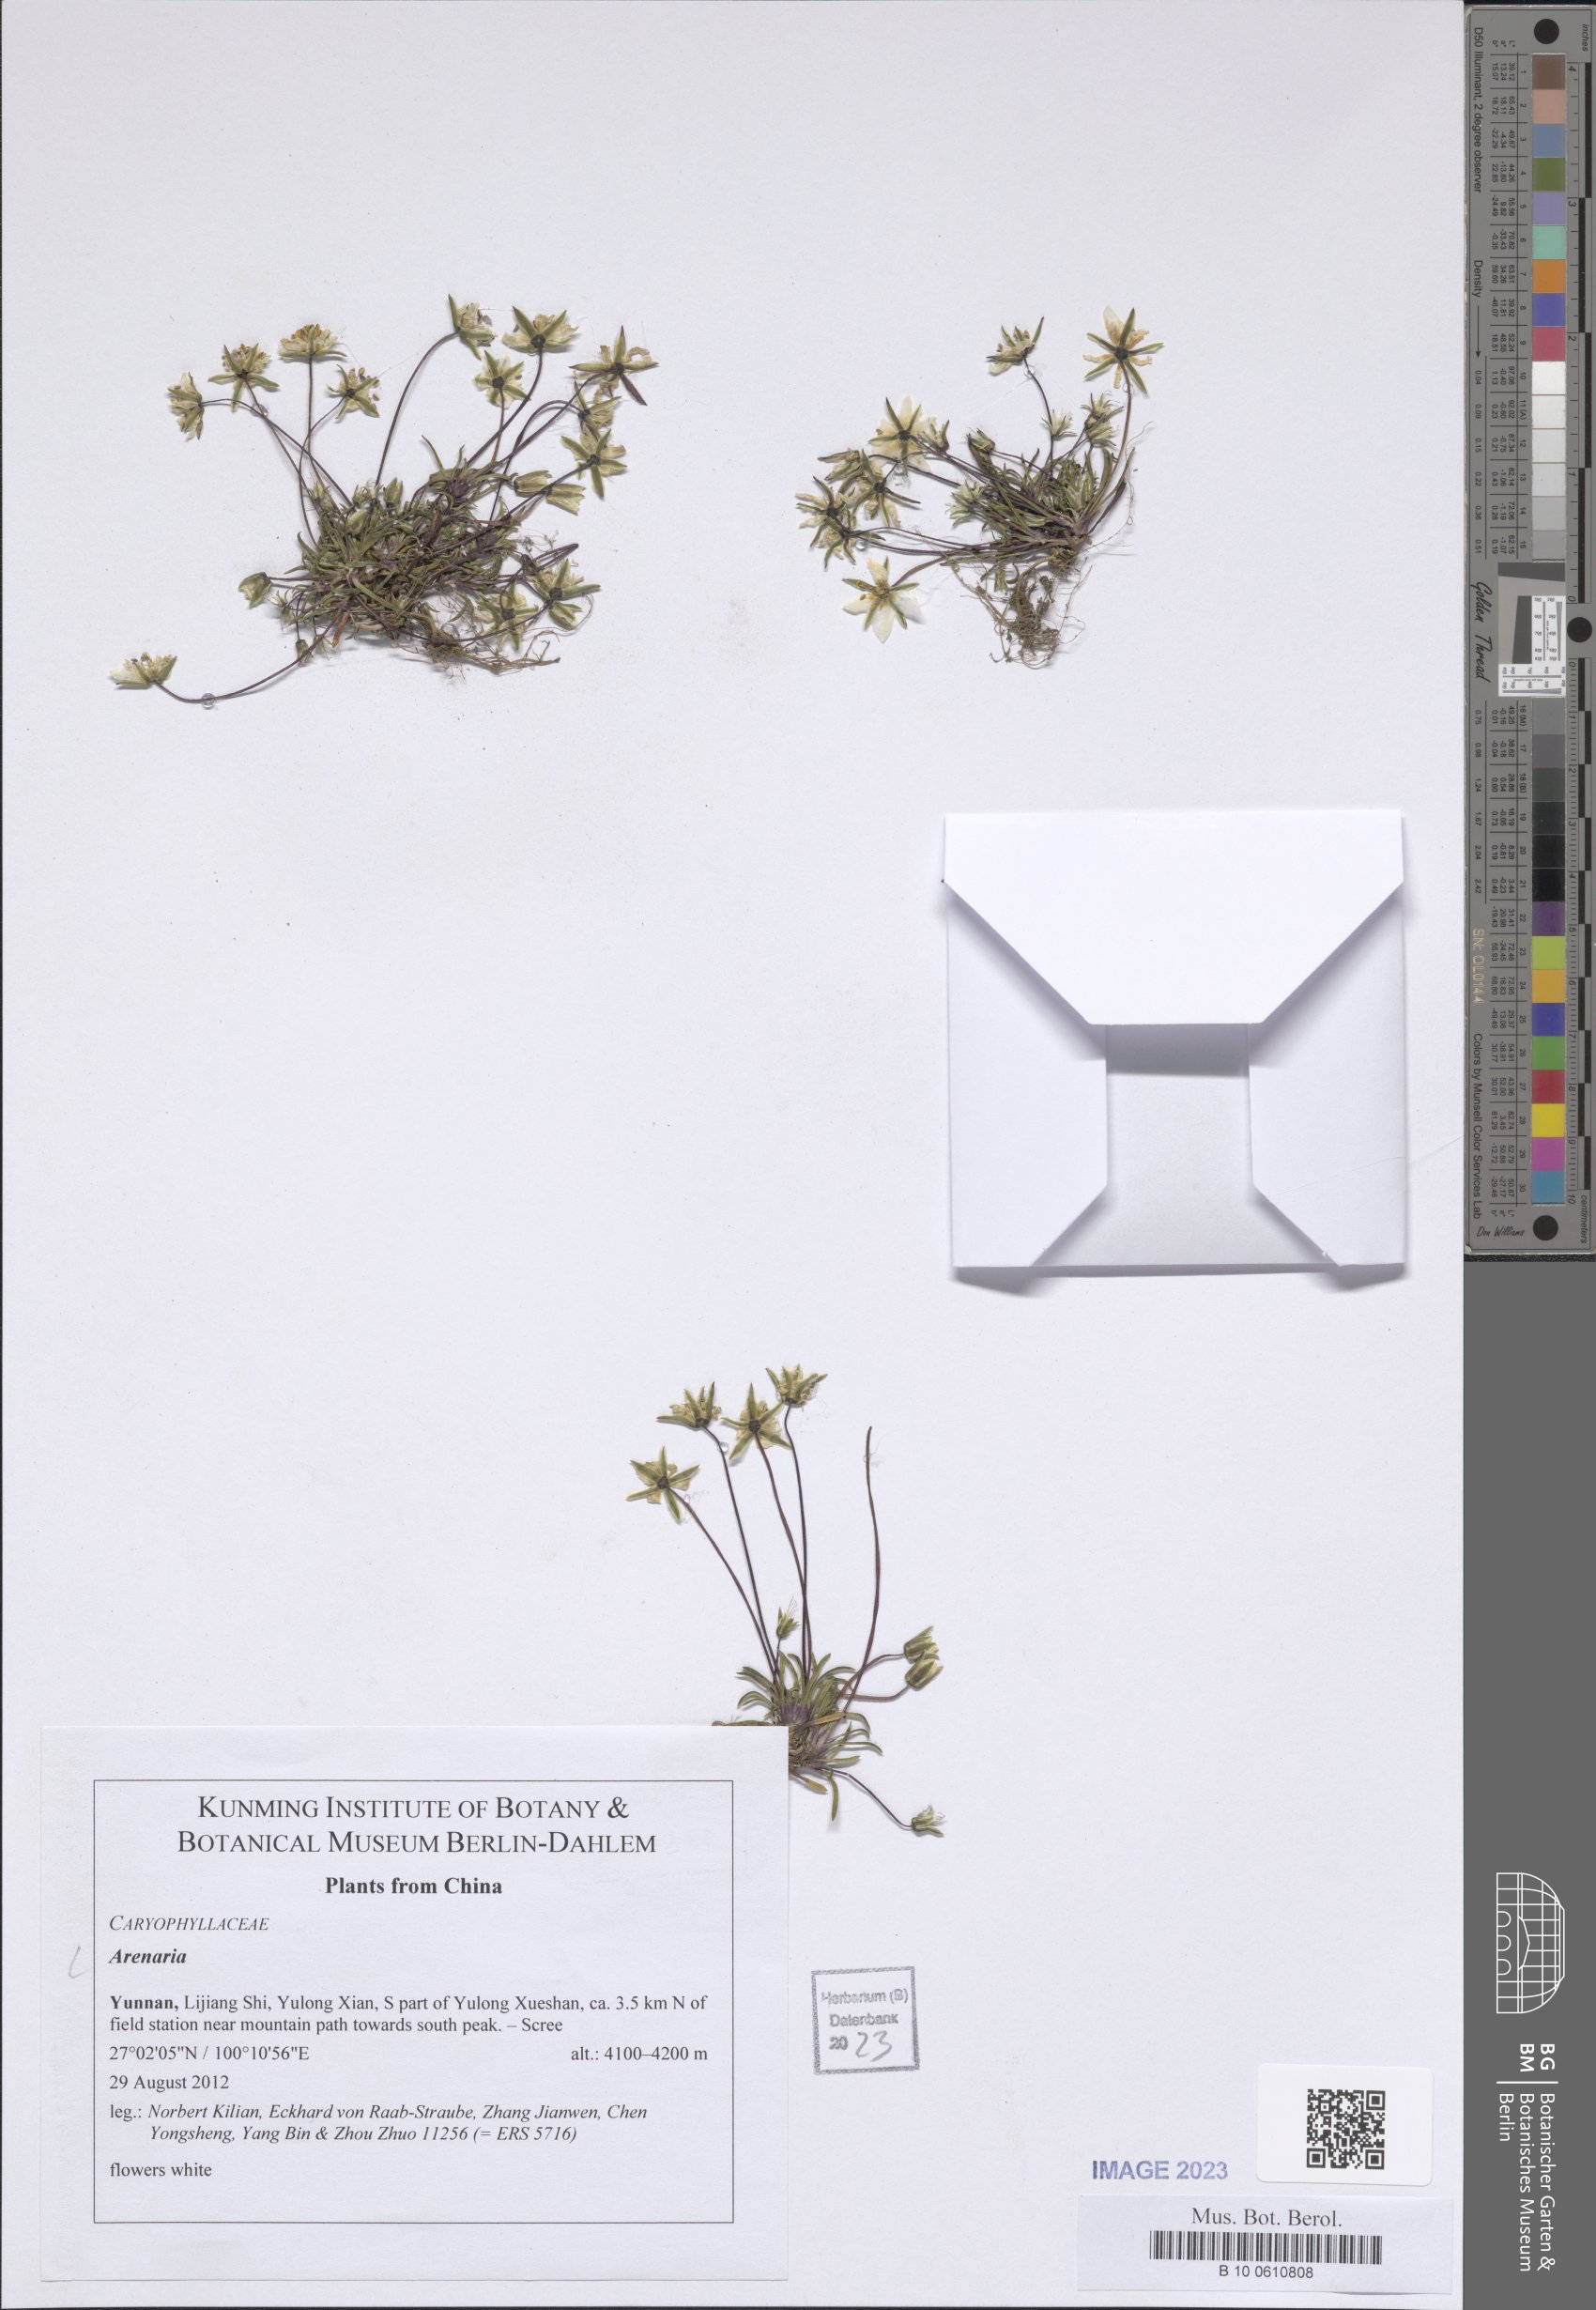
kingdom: Plantae
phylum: Tracheophyta
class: Magnoliopsida
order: Caryophyllales
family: Caryophyllaceae
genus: Arenaria
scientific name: Arenaria
